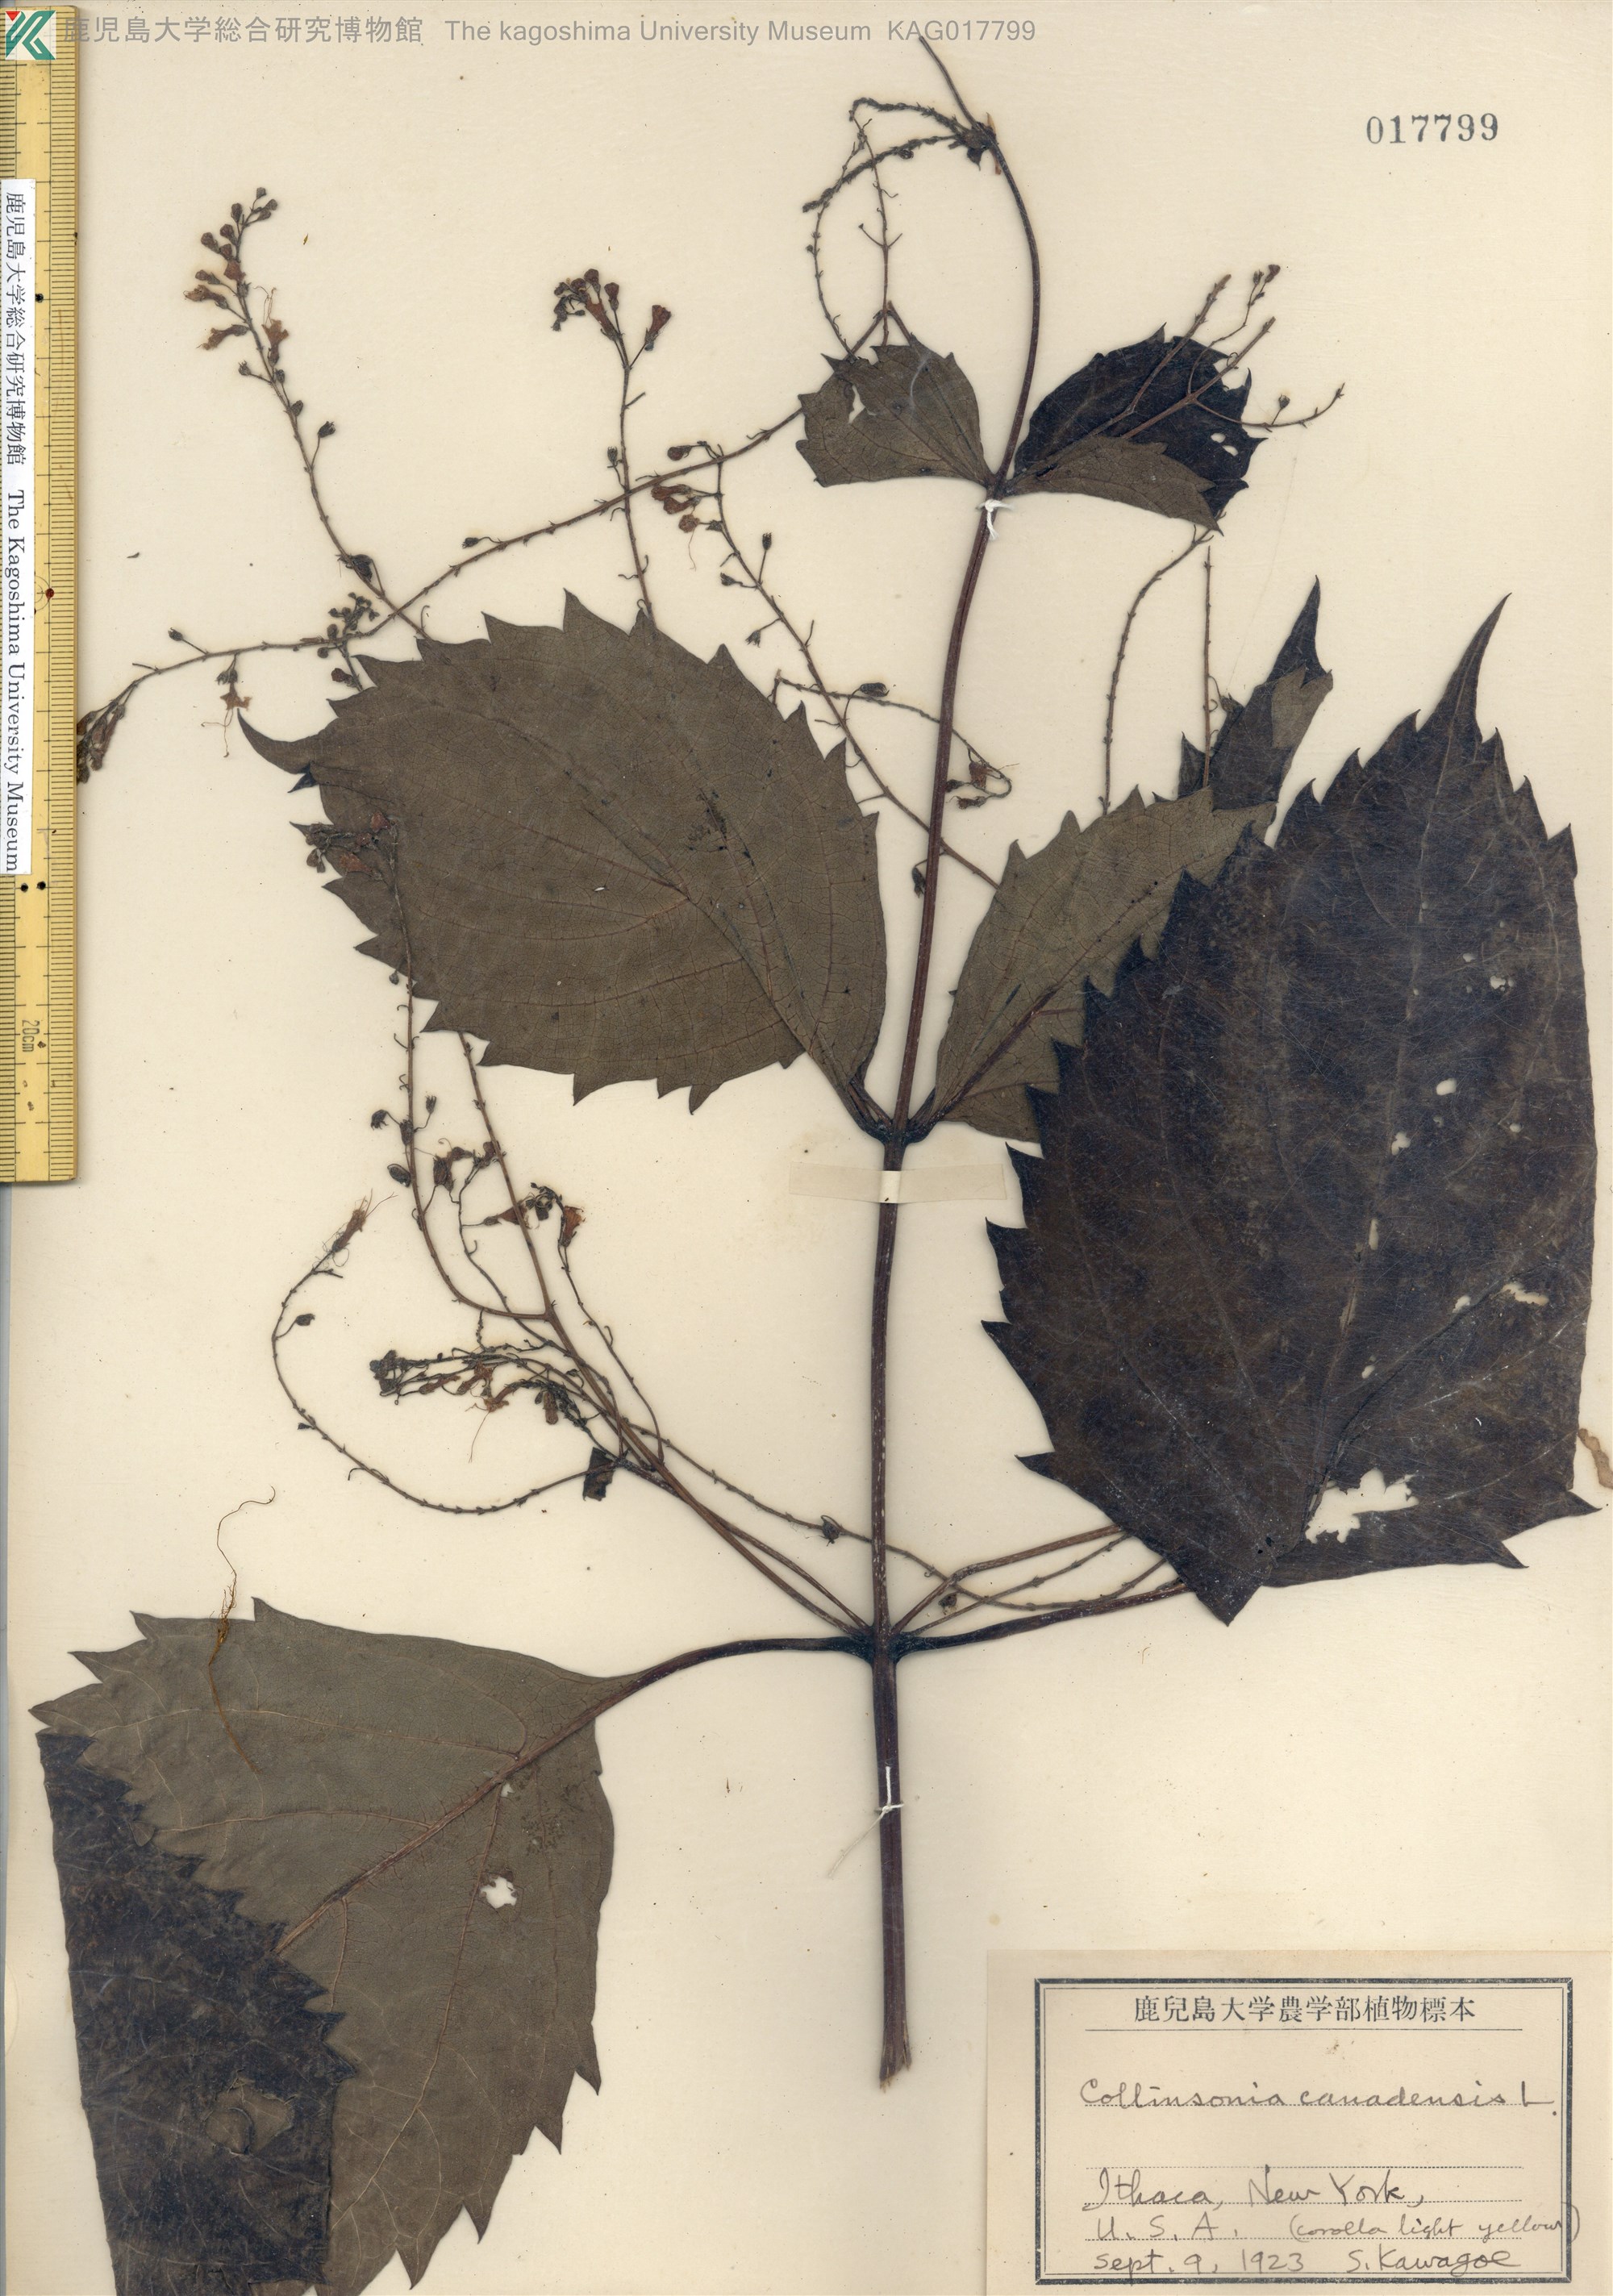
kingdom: Plantae
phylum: Tracheophyta
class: Magnoliopsida
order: Lamiales
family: Lamiaceae
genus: Collinsonia
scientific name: Collinsonia canadensis
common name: Northern horsebalm
